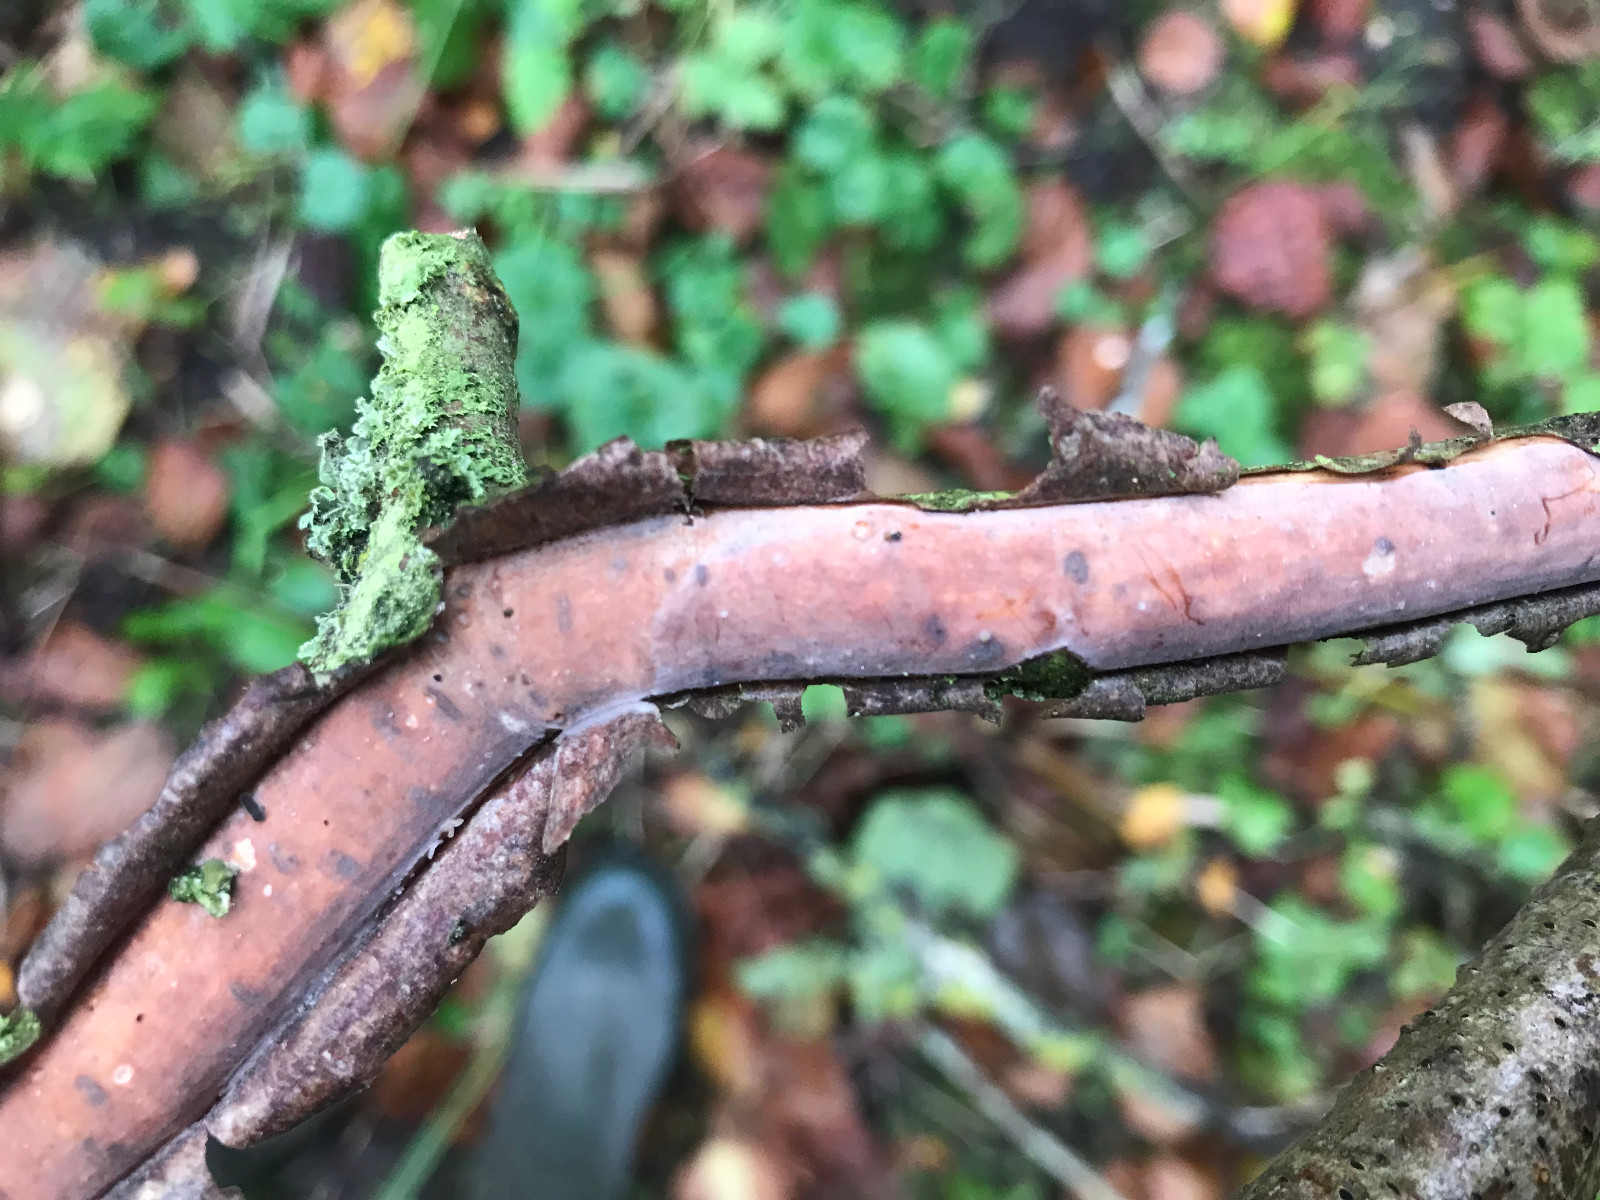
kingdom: Fungi
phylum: Basidiomycota
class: Agaricomycetes
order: Corticiales
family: Vuilleminiaceae
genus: Vuilleminia
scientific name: Vuilleminia coryli
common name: hassel-barksprænger
